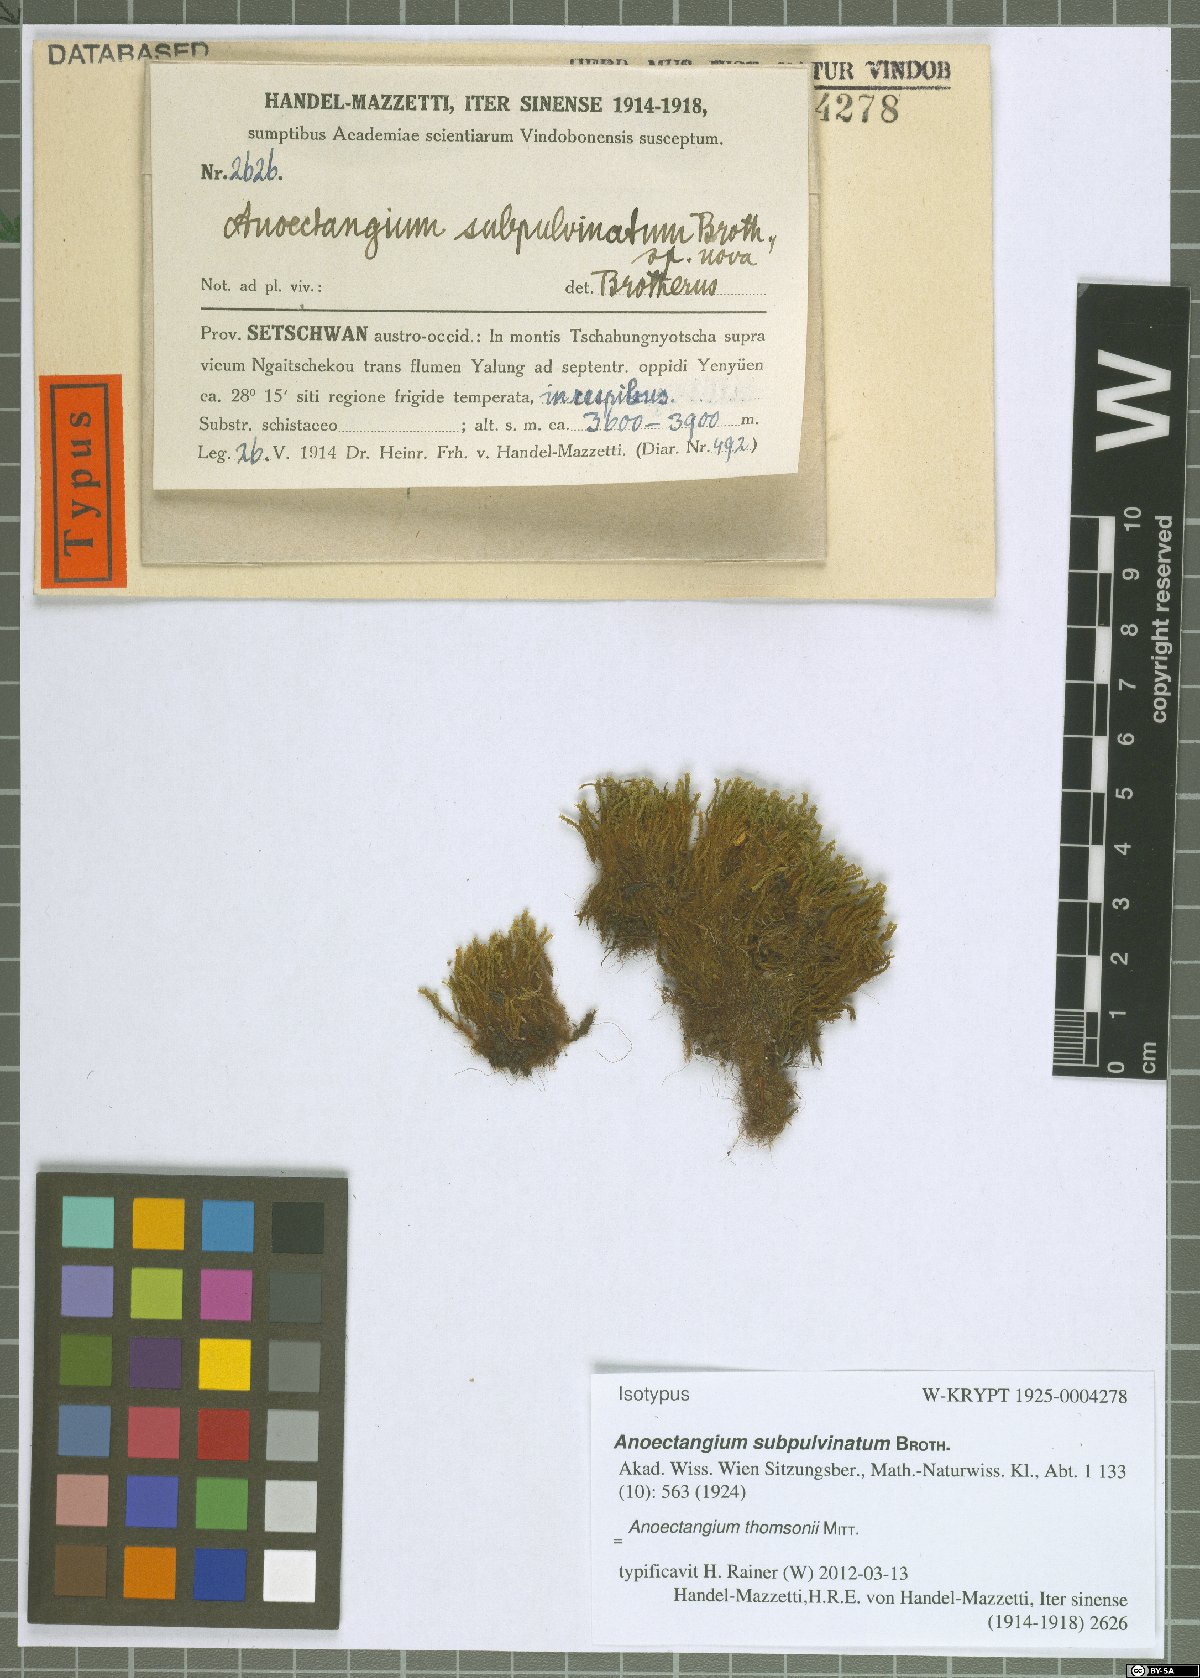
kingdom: Plantae
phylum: Bryophyta
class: Bryopsida
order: Pottiales
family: Pottiaceae
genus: Anoectangium
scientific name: Anoectangium thomsonii
